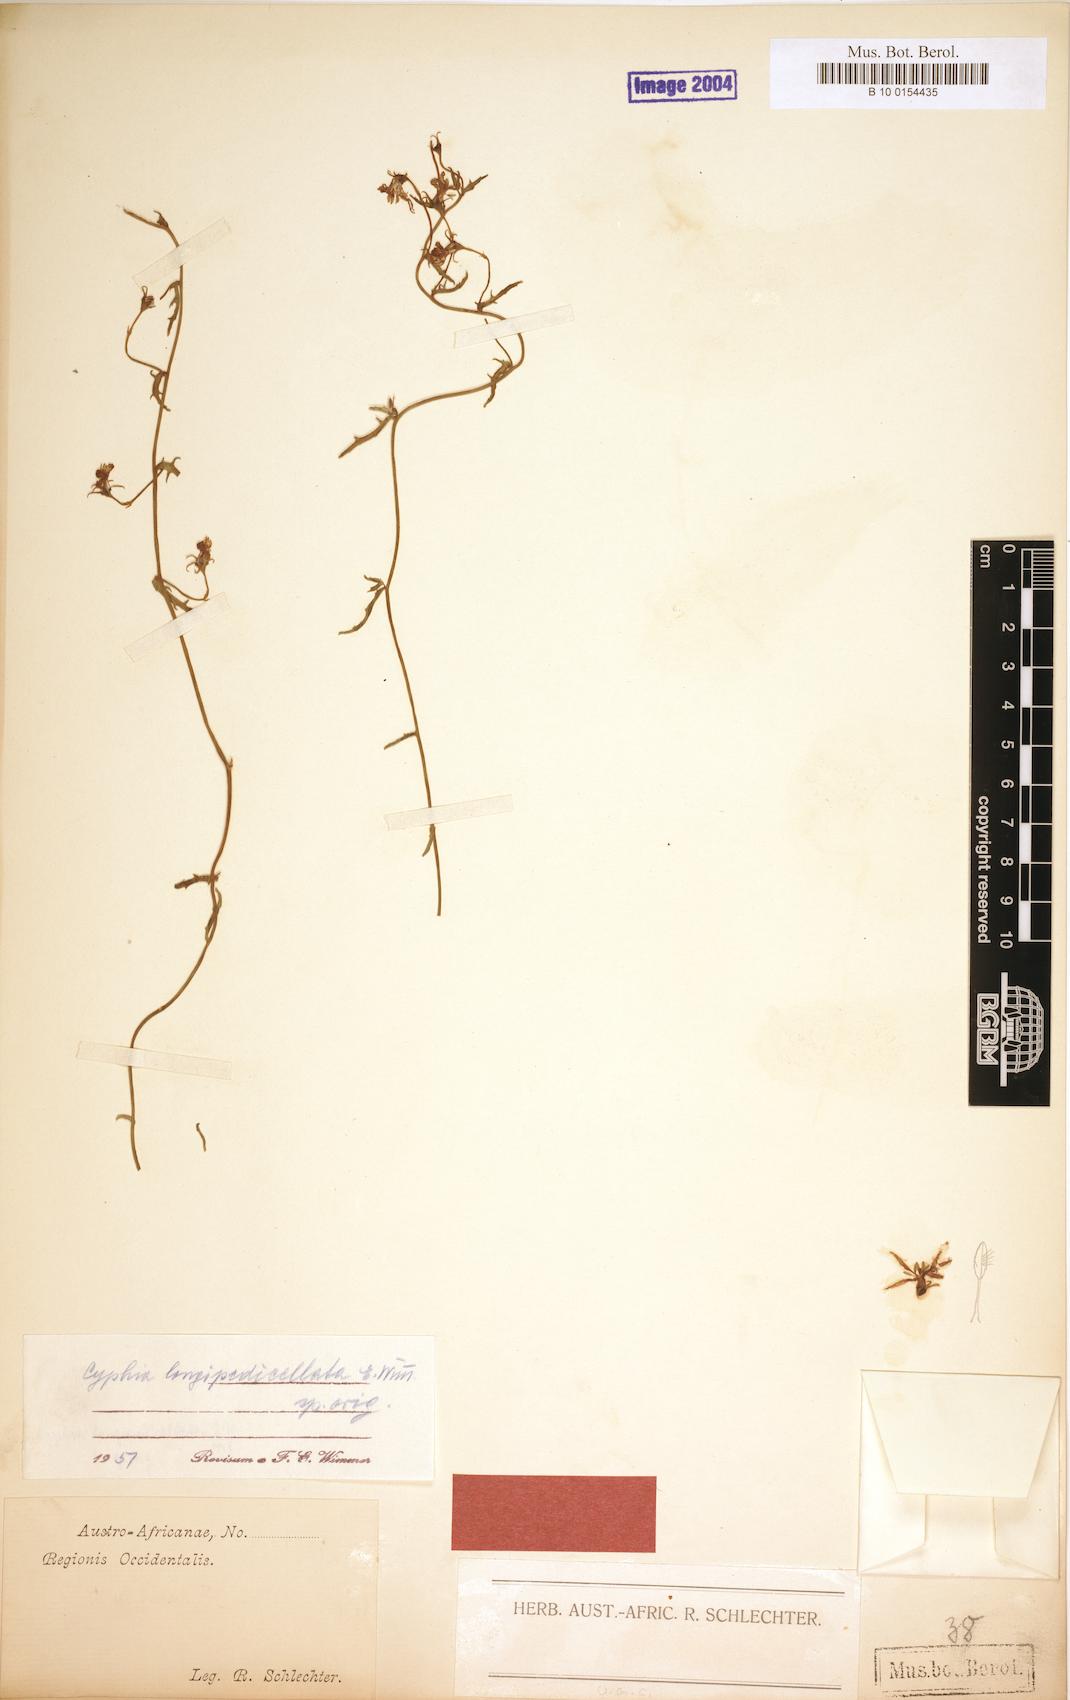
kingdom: Plantae
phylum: Tracheophyta
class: Magnoliopsida
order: Asterales
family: Campanulaceae
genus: Cyphia
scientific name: Cyphia longipedicellata
